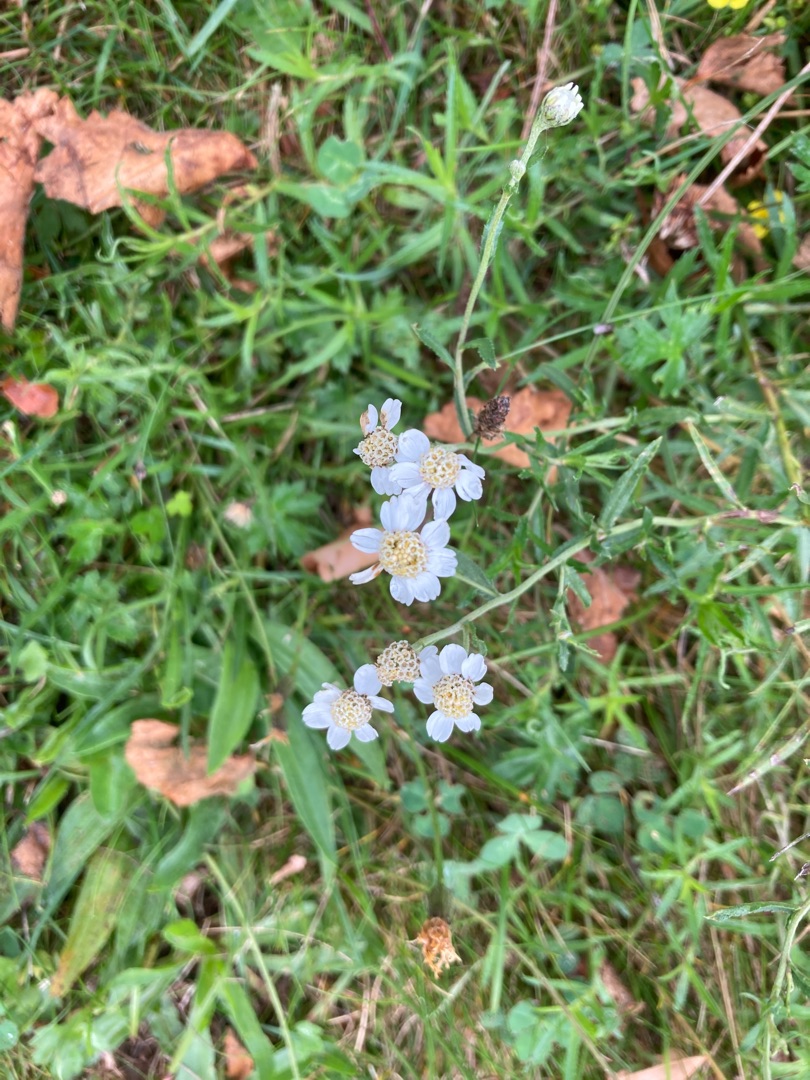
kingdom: Plantae
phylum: Tracheophyta
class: Magnoliopsida
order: Asterales
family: Asteraceae
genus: Achillea
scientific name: Achillea ptarmica
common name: Nyse-røllike
